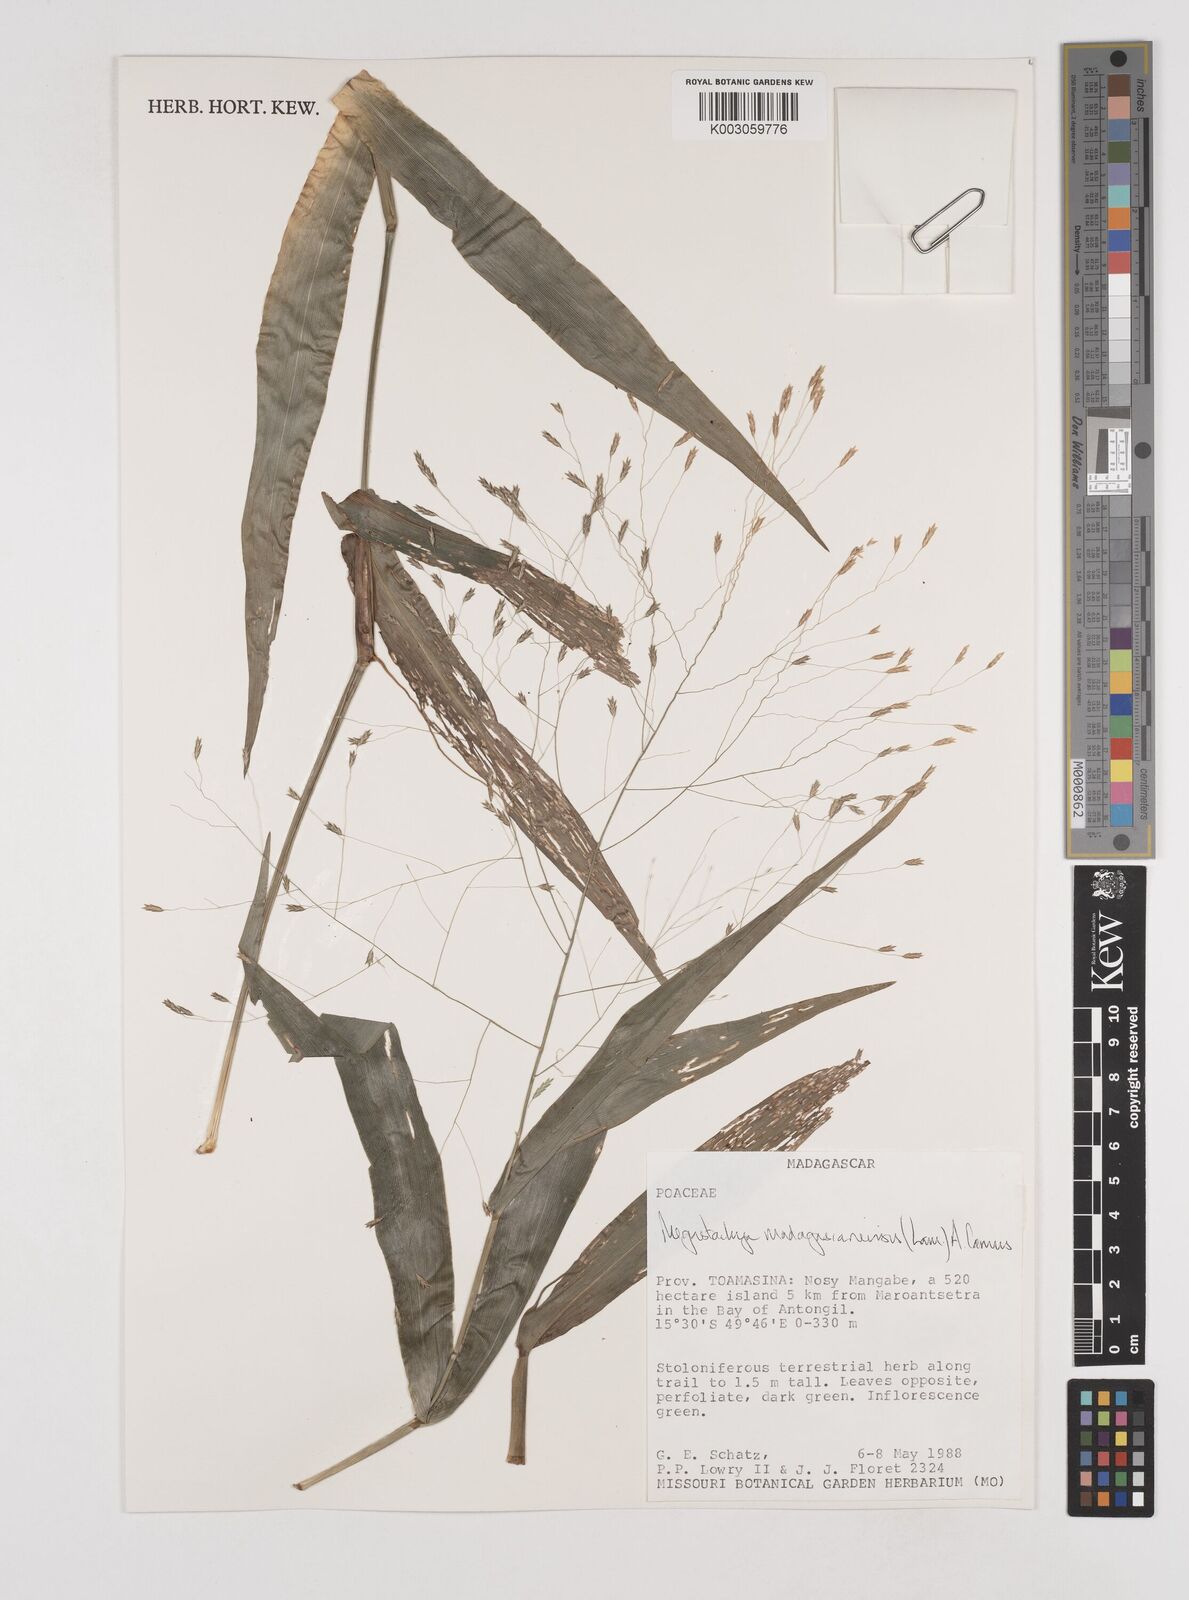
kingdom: Plantae
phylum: Tracheophyta
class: Liliopsida
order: Poales
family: Poaceae
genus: Megastachya
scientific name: Megastachya madagascariensis
